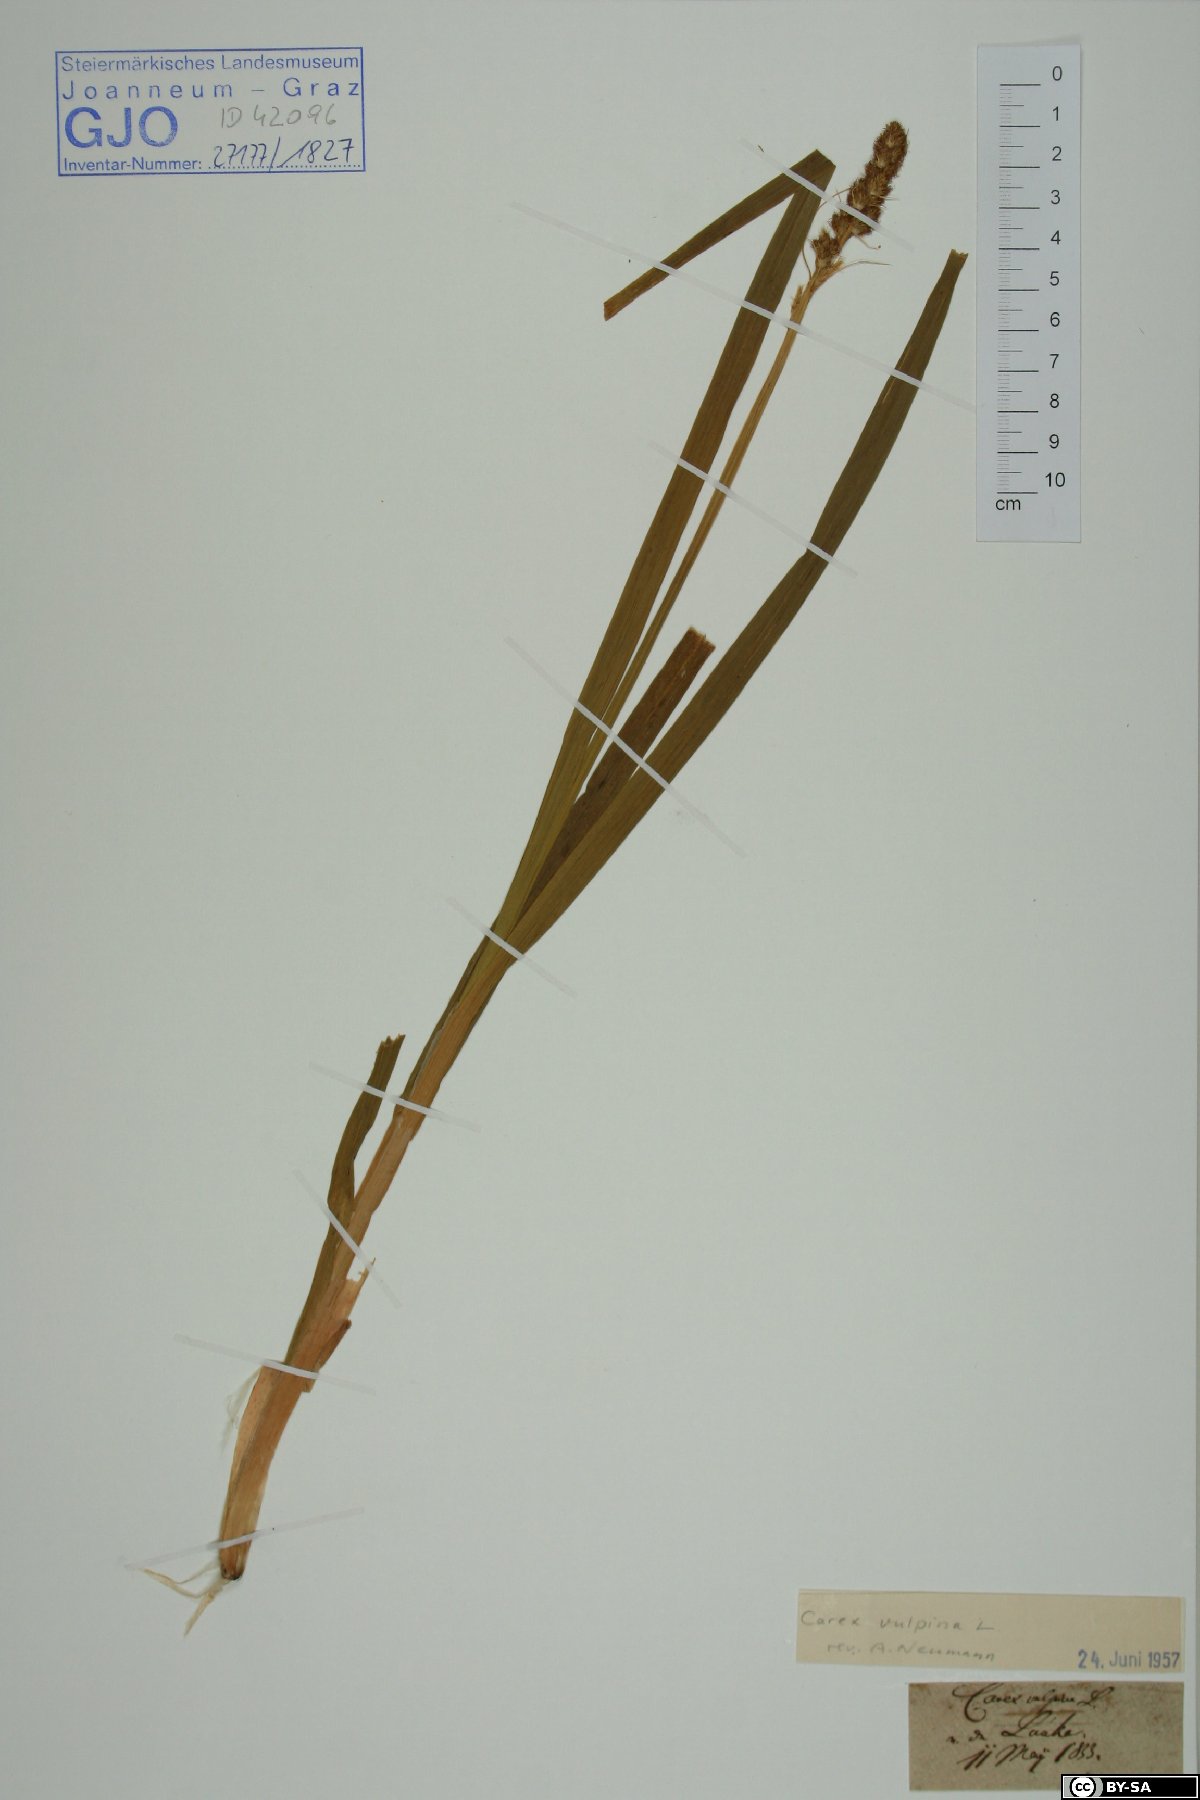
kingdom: Plantae
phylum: Tracheophyta
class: Liliopsida
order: Poales
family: Cyperaceae
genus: Carex
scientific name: Carex vulpina
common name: True fox-sedge
